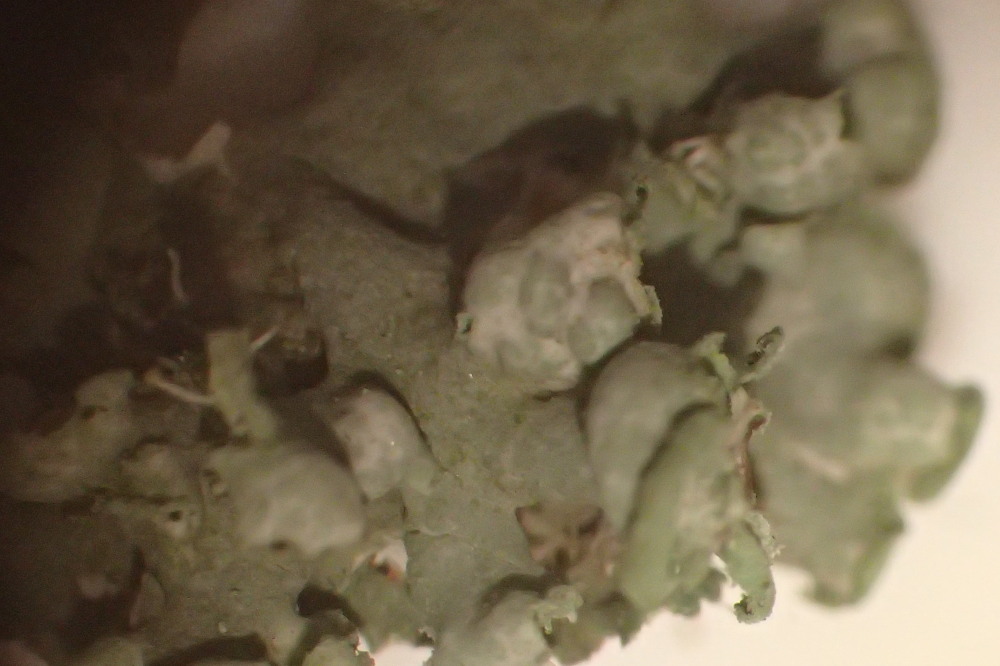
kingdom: Fungi
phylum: Ascomycota
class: Lecanoromycetes
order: Caliciales
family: Physciaceae
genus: Physcia
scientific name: Physcia adscendens
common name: hætte-rosetlav
